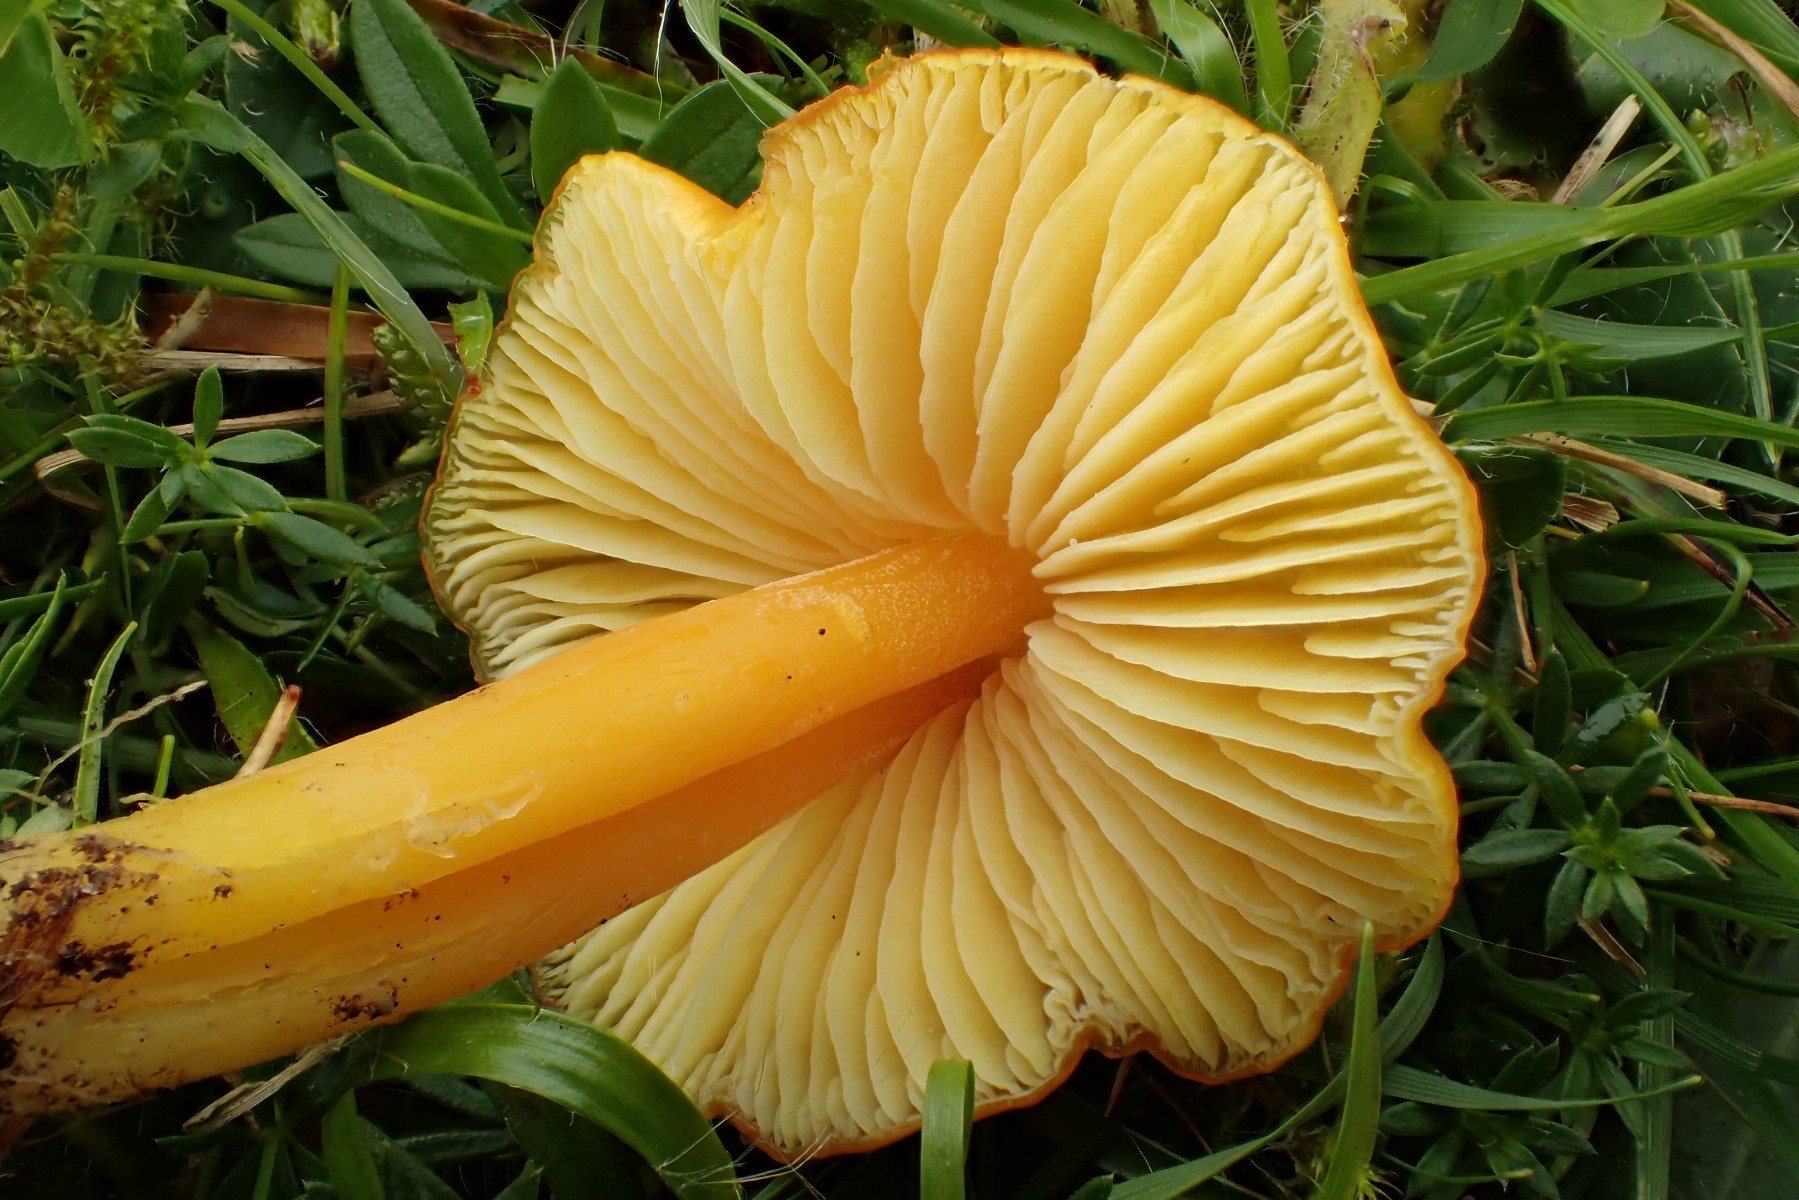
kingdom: Fungi
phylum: Basidiomycota
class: Agaricomycetes
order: Agaricales
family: Hygrophoraceae
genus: Hygrocybe
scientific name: Hygrocybe chlorophana
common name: gul vokshat
